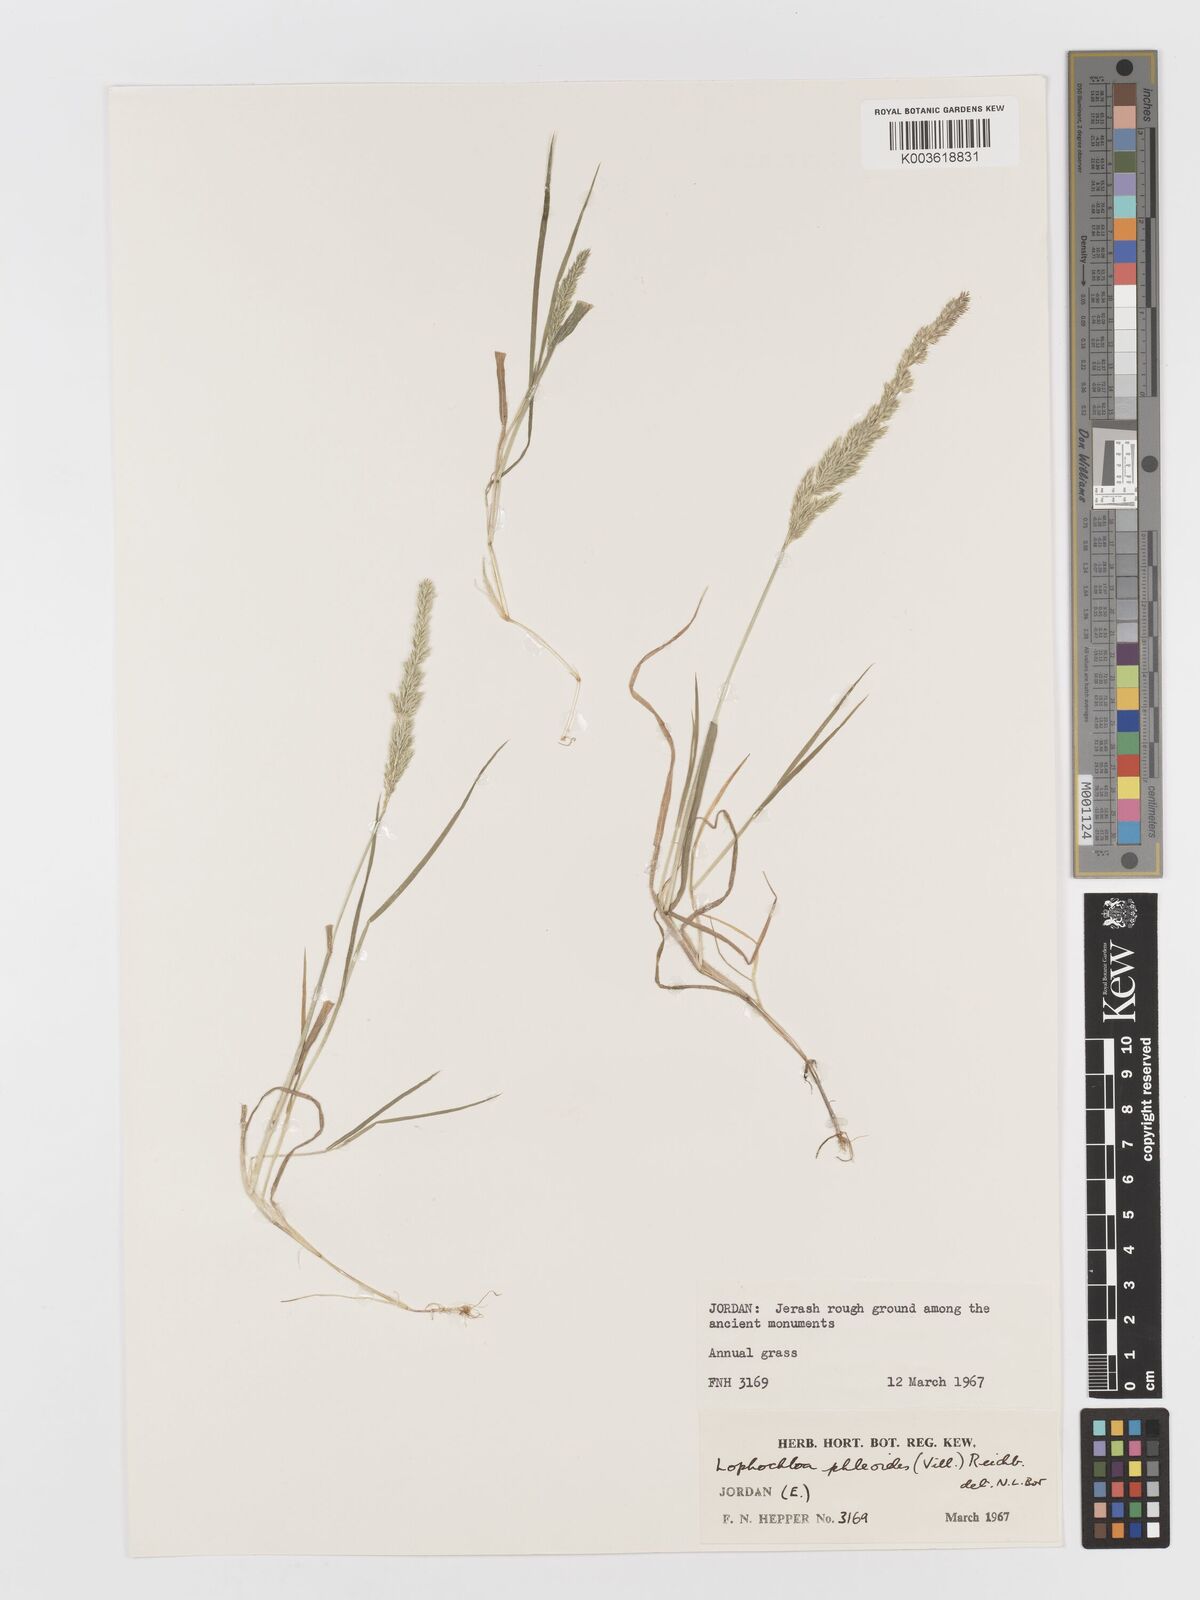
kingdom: Plantae
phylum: Tracheophyta
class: Liliopsida
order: Poales
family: Poaceae
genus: Rostraria
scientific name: Rostraria cristata
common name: Mediterranean hair-grass
